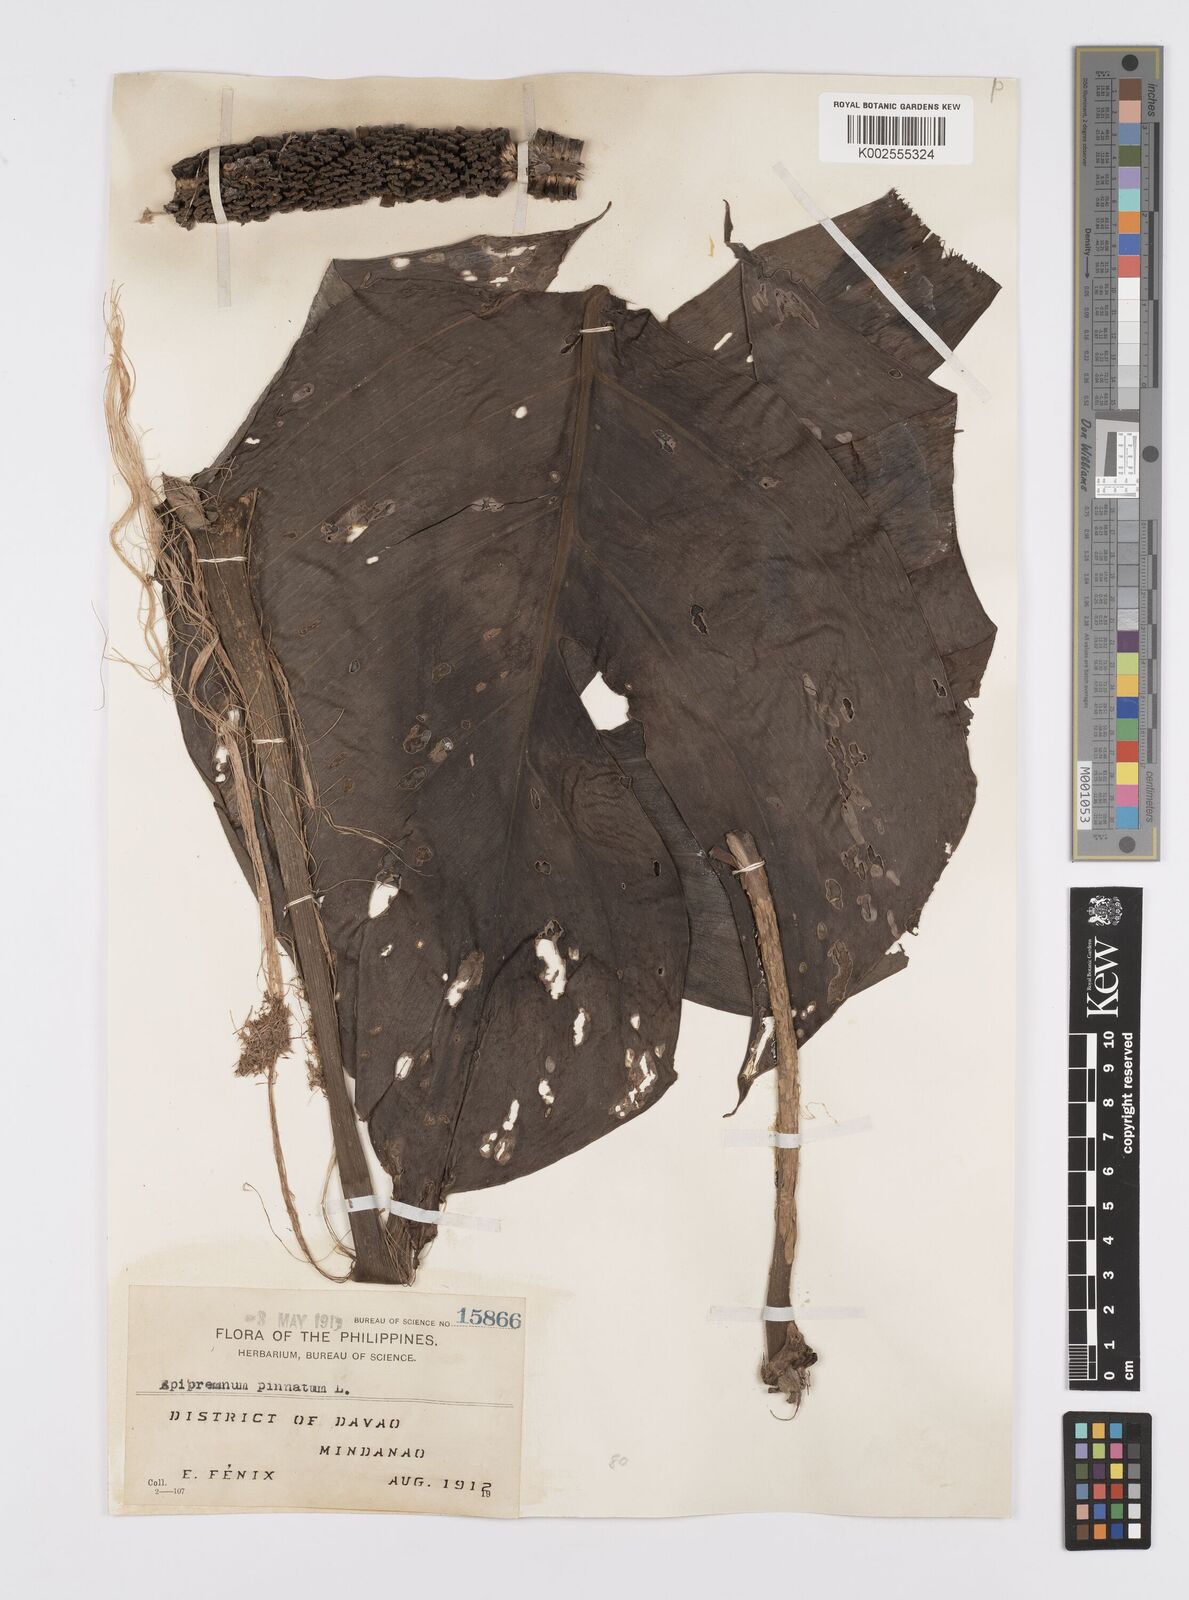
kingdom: Plantae
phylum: Tracheophyta
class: Liliopsida
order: Alismatales
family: Araceae
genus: Epipremnum
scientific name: Epipremnum pinnatum
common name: Centipede tongavine
